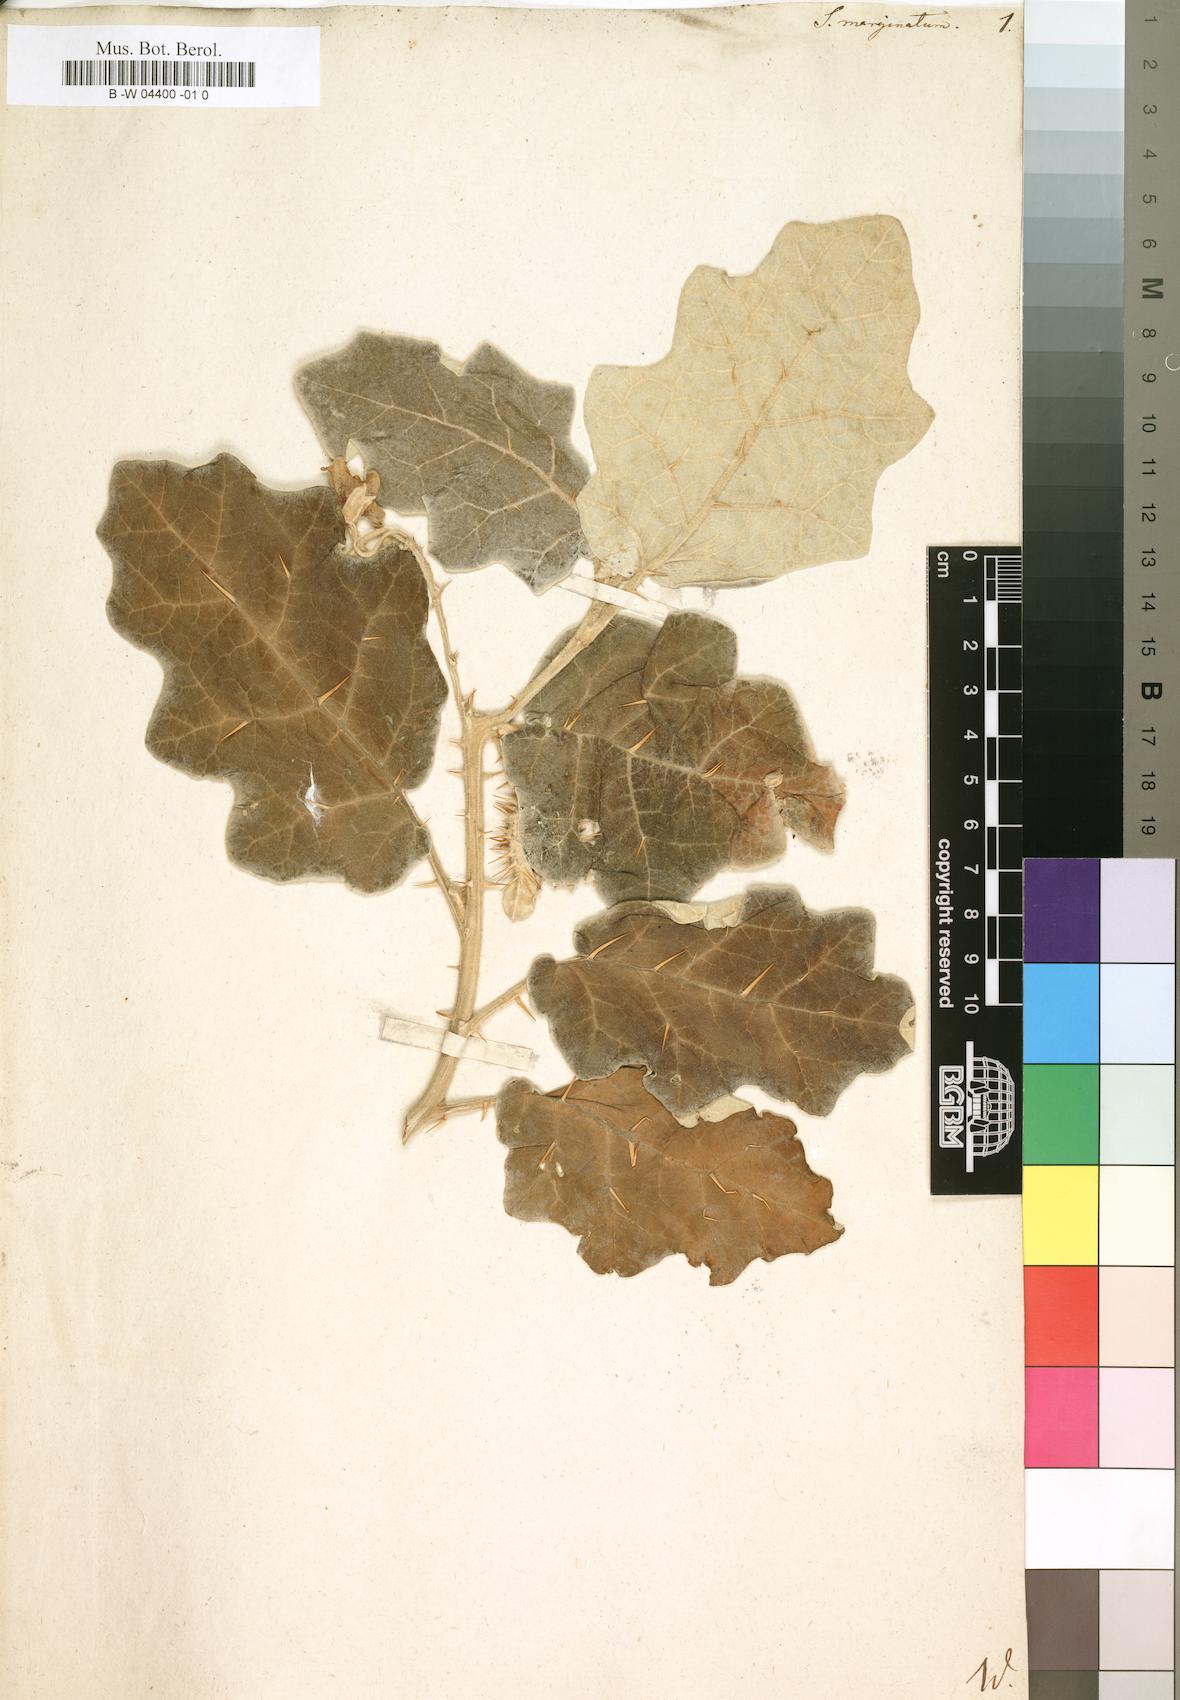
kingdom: Plantae
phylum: Tracheophyta
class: Magnoliopsida
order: Solanales
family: Solanaceae
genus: Solanum
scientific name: Solanum marginatum
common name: Purple african nightshade
